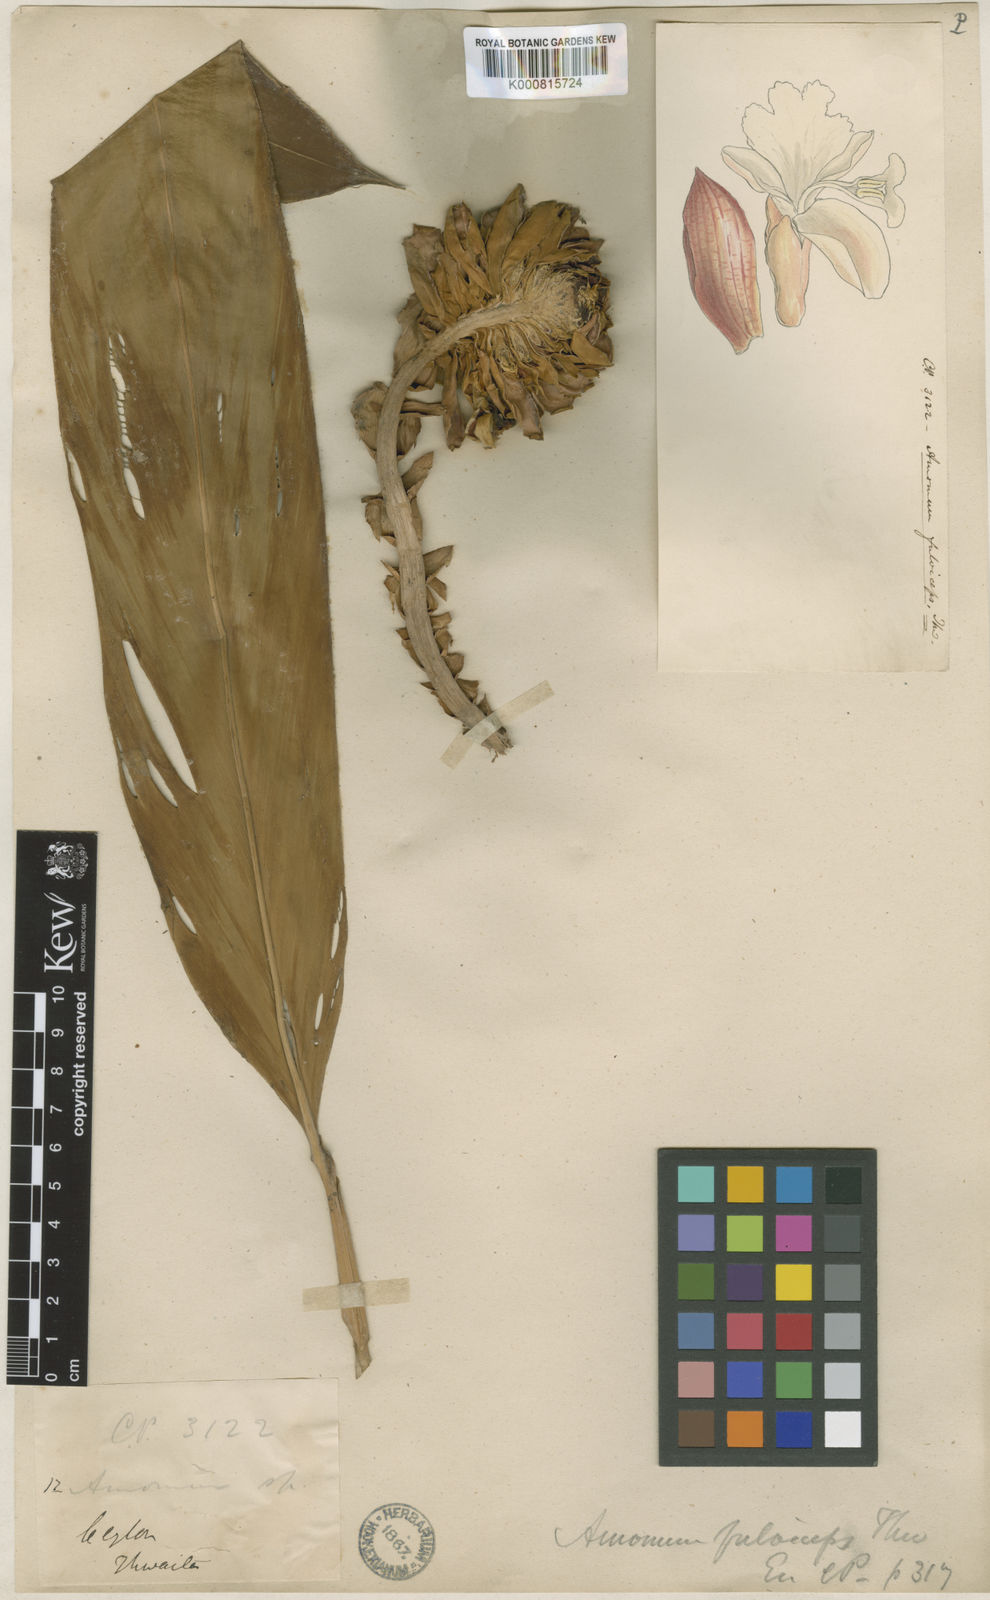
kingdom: Plantae
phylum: Tracheophyta
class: Liliopsida
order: Zingiberales
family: Zingiberaceae
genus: Meistera
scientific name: Meistera fulviceps
